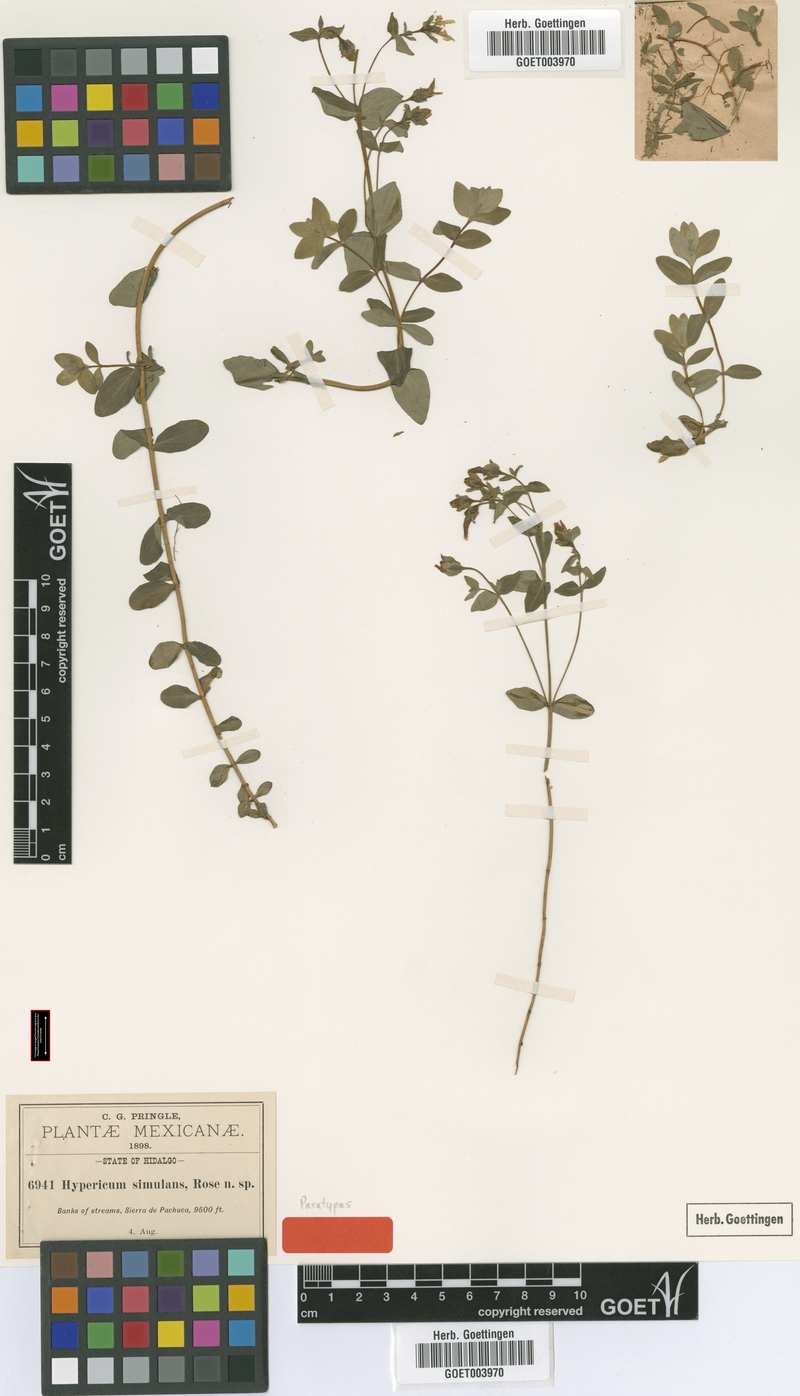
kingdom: Plantae
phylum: Tracheophyta
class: Magnoliopsida
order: Malpighiales
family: Hypericaceae
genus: Hypericum
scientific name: Hypericum formosum
